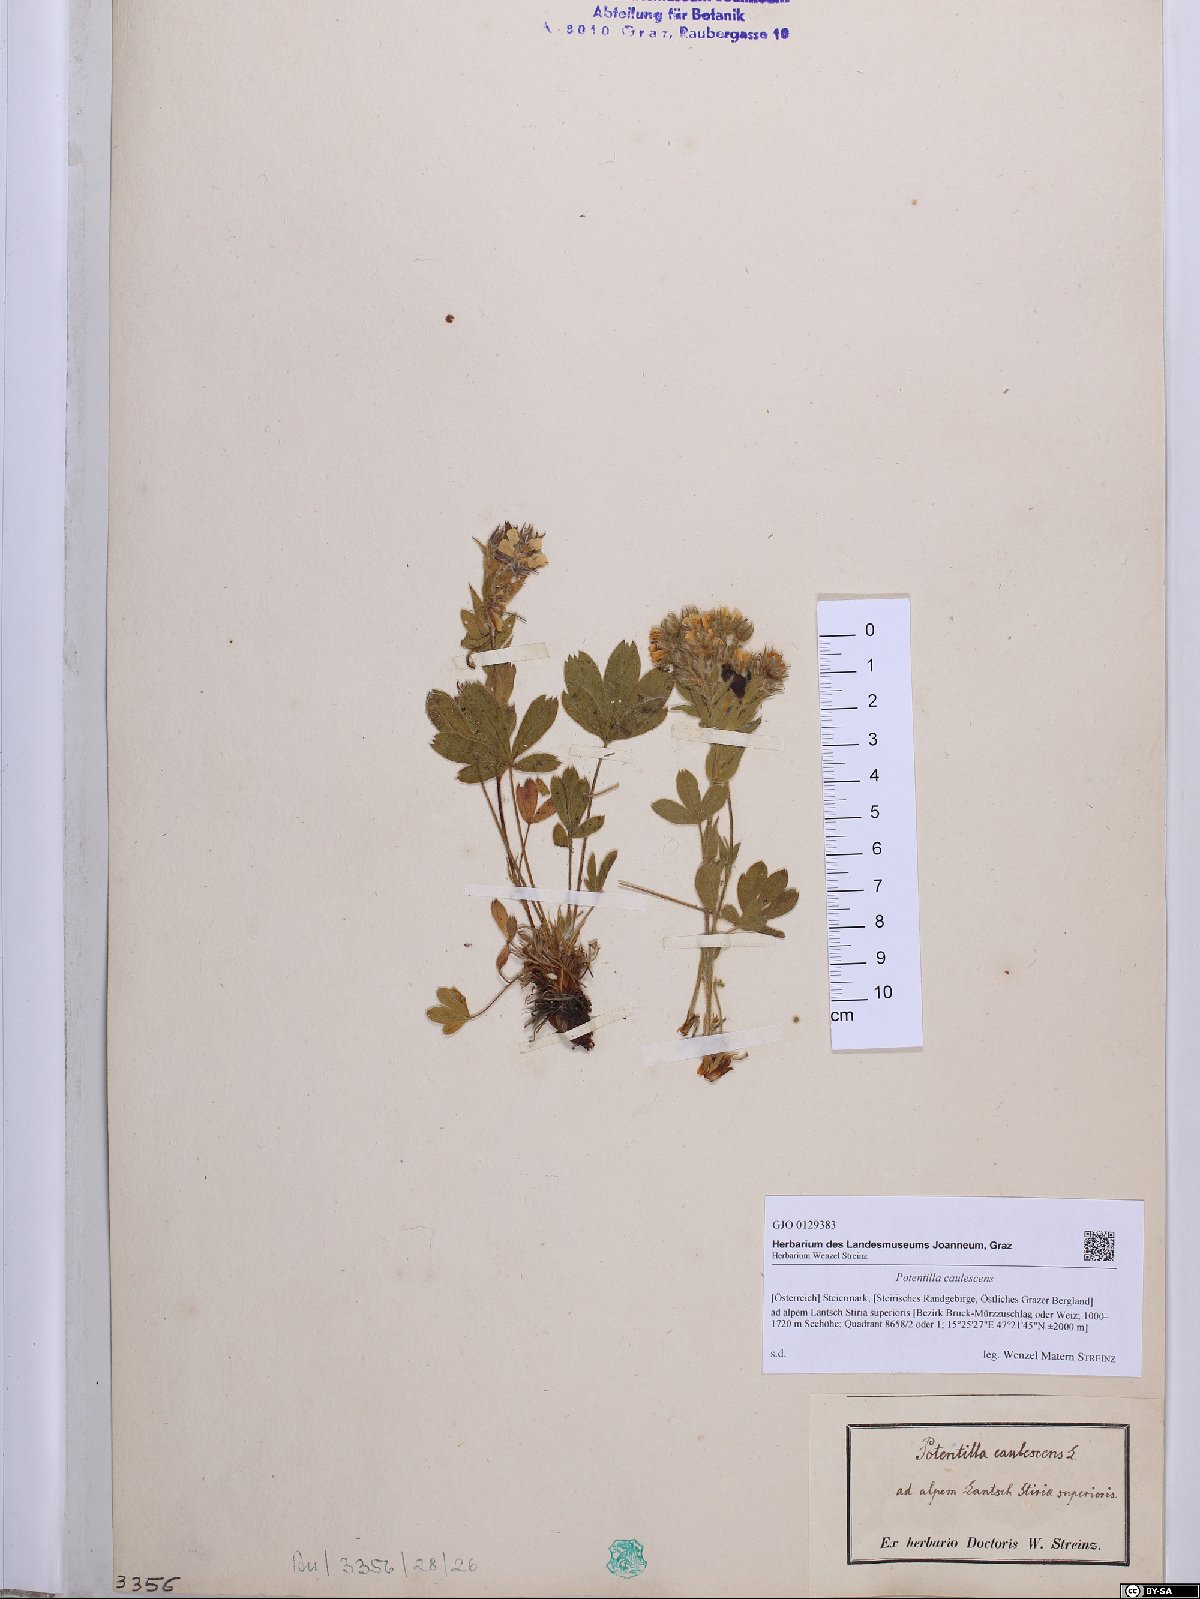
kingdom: Plantae
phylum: Tracheophyta
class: Magnoliopsida
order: Rosales
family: Rosaceae
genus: Potentilla
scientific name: Potentilla caulescens
